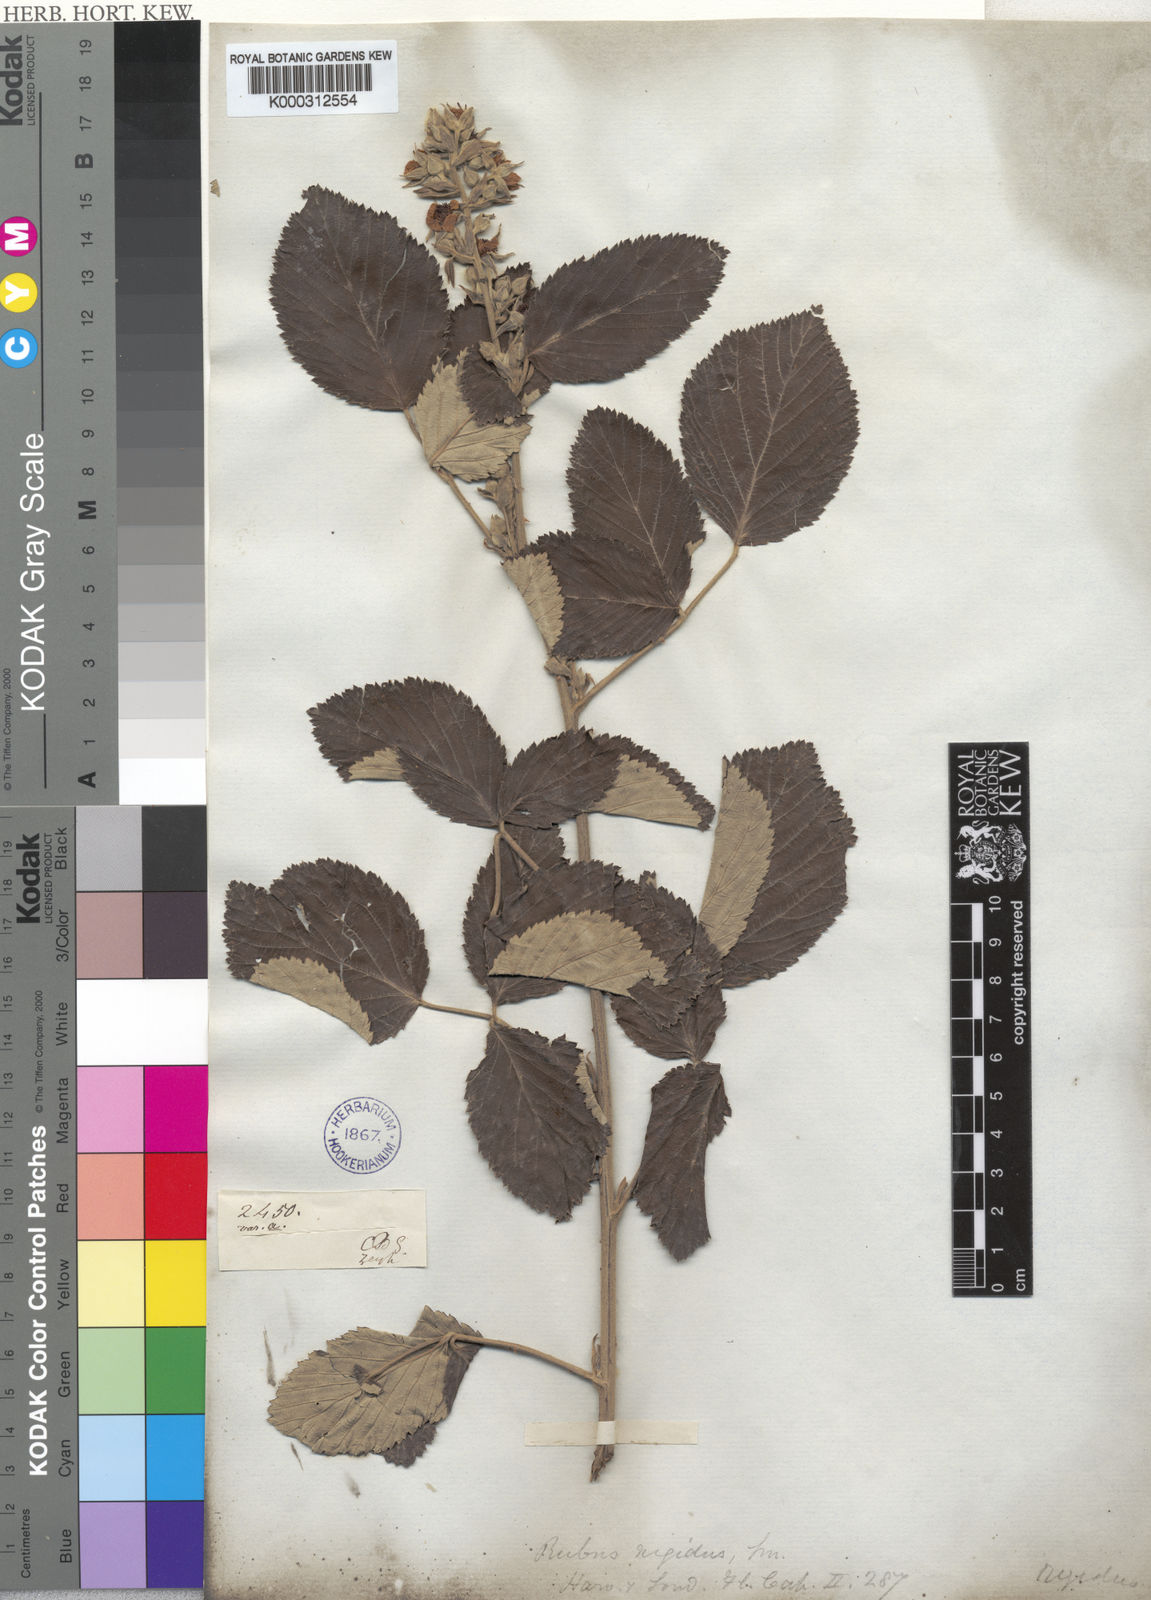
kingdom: Plantae
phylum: Tracheophyta
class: Magnoliopsida
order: Rosales
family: Rosaceae
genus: Rubus
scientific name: Rubus
